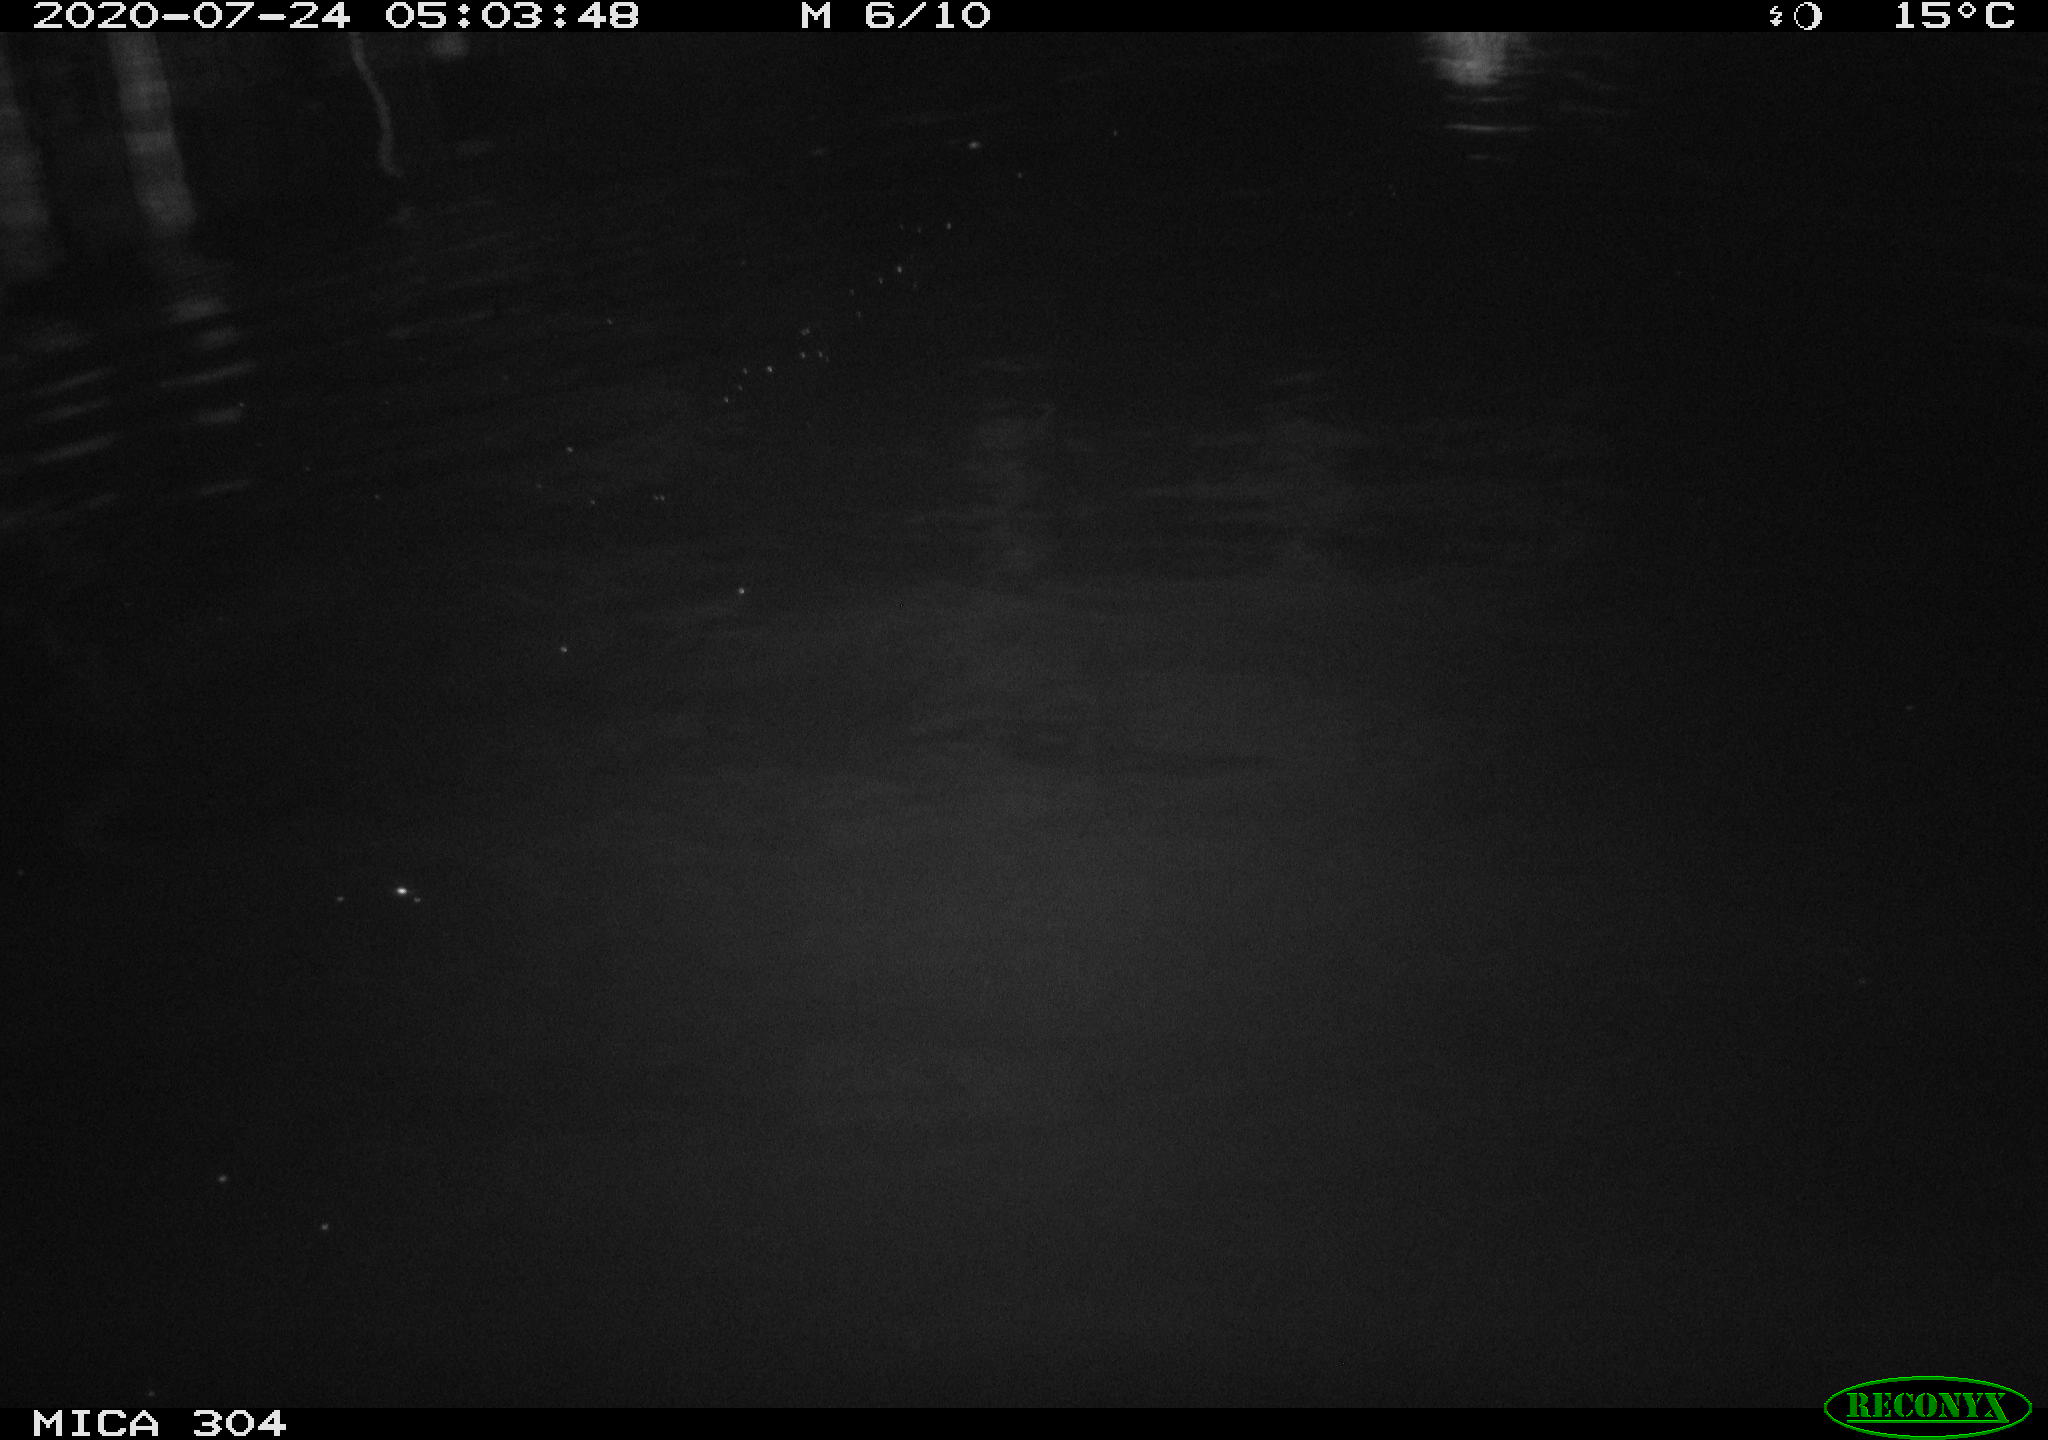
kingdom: Animalia
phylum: Chordata
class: Aves
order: Anseriformes
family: Anatidae
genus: Anas
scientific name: Anas platyrhynchos
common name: Mallard
